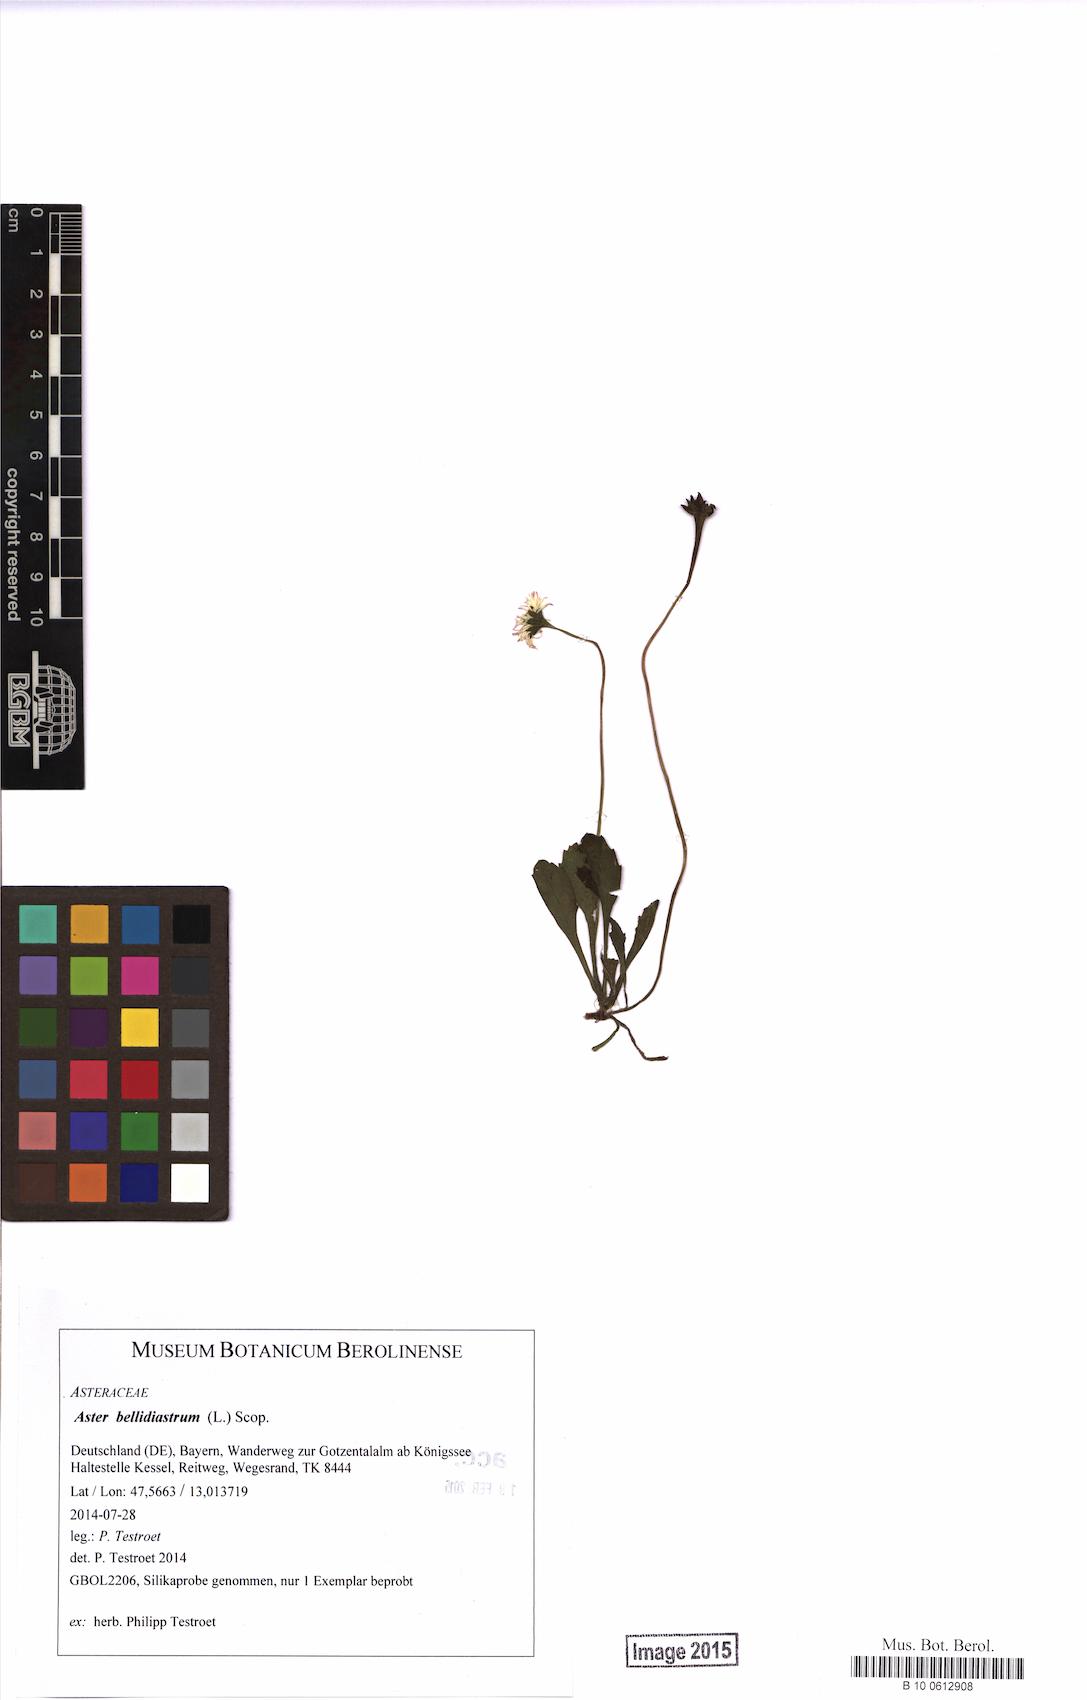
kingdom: Plantae
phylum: Tracheophyta
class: Magnoliopsida
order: Asterales
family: Asteraceae
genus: Bellidiastrum
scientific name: Bellidiastrum michelii
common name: Daisy-star aster
